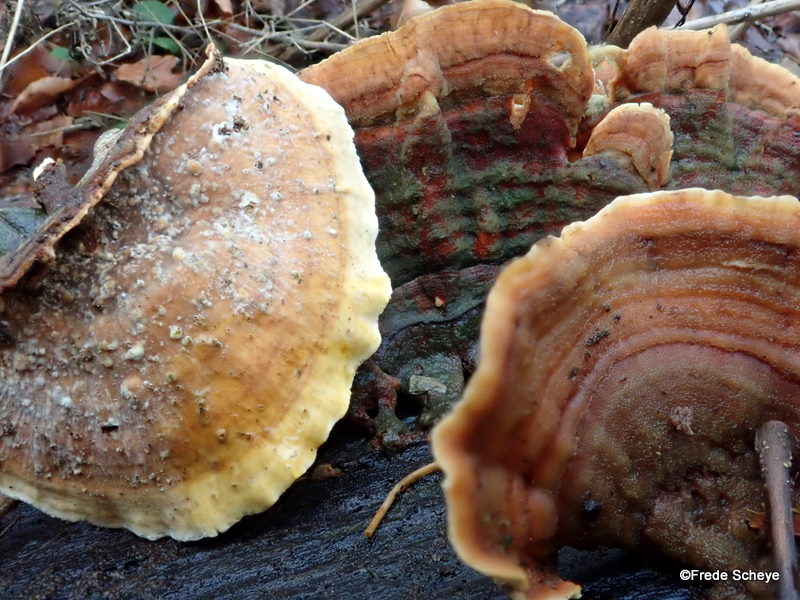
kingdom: Fungi
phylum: Basidiomycota
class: Agaricomycetes
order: Russulales
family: Stereaceae
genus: Stereum
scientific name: Stereum subtomentosum
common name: smuk lædersvamp
